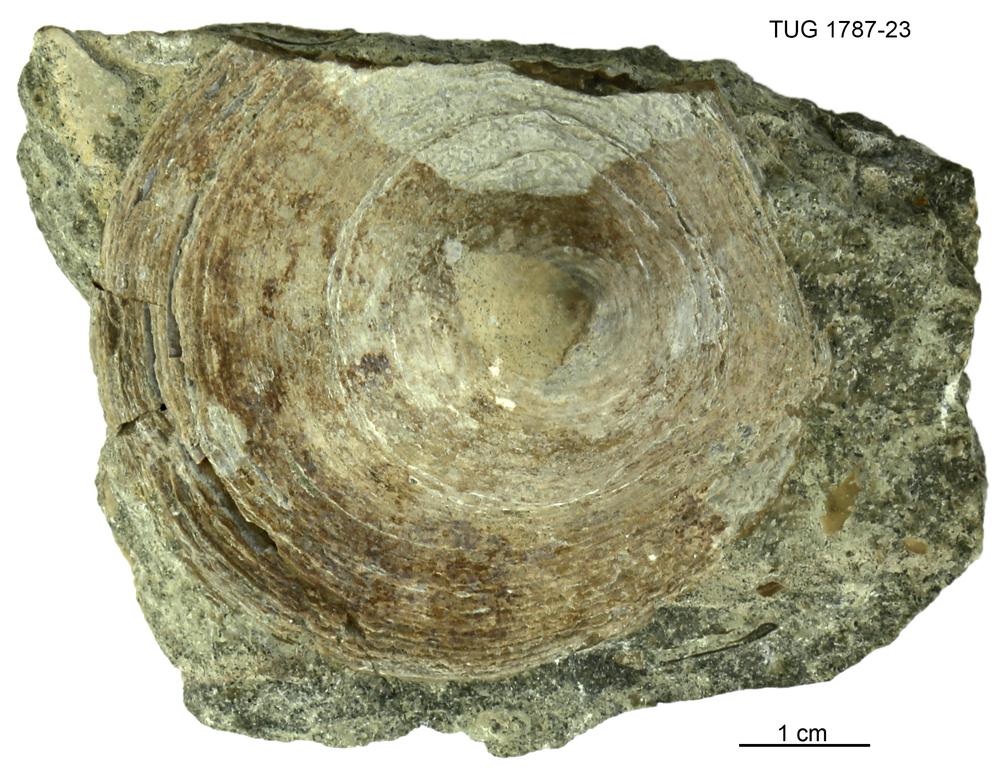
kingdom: Animalia
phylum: Mollusca
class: Monoplacophora
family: Metoptomatidae
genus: Metoptoma
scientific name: Metoptoma
